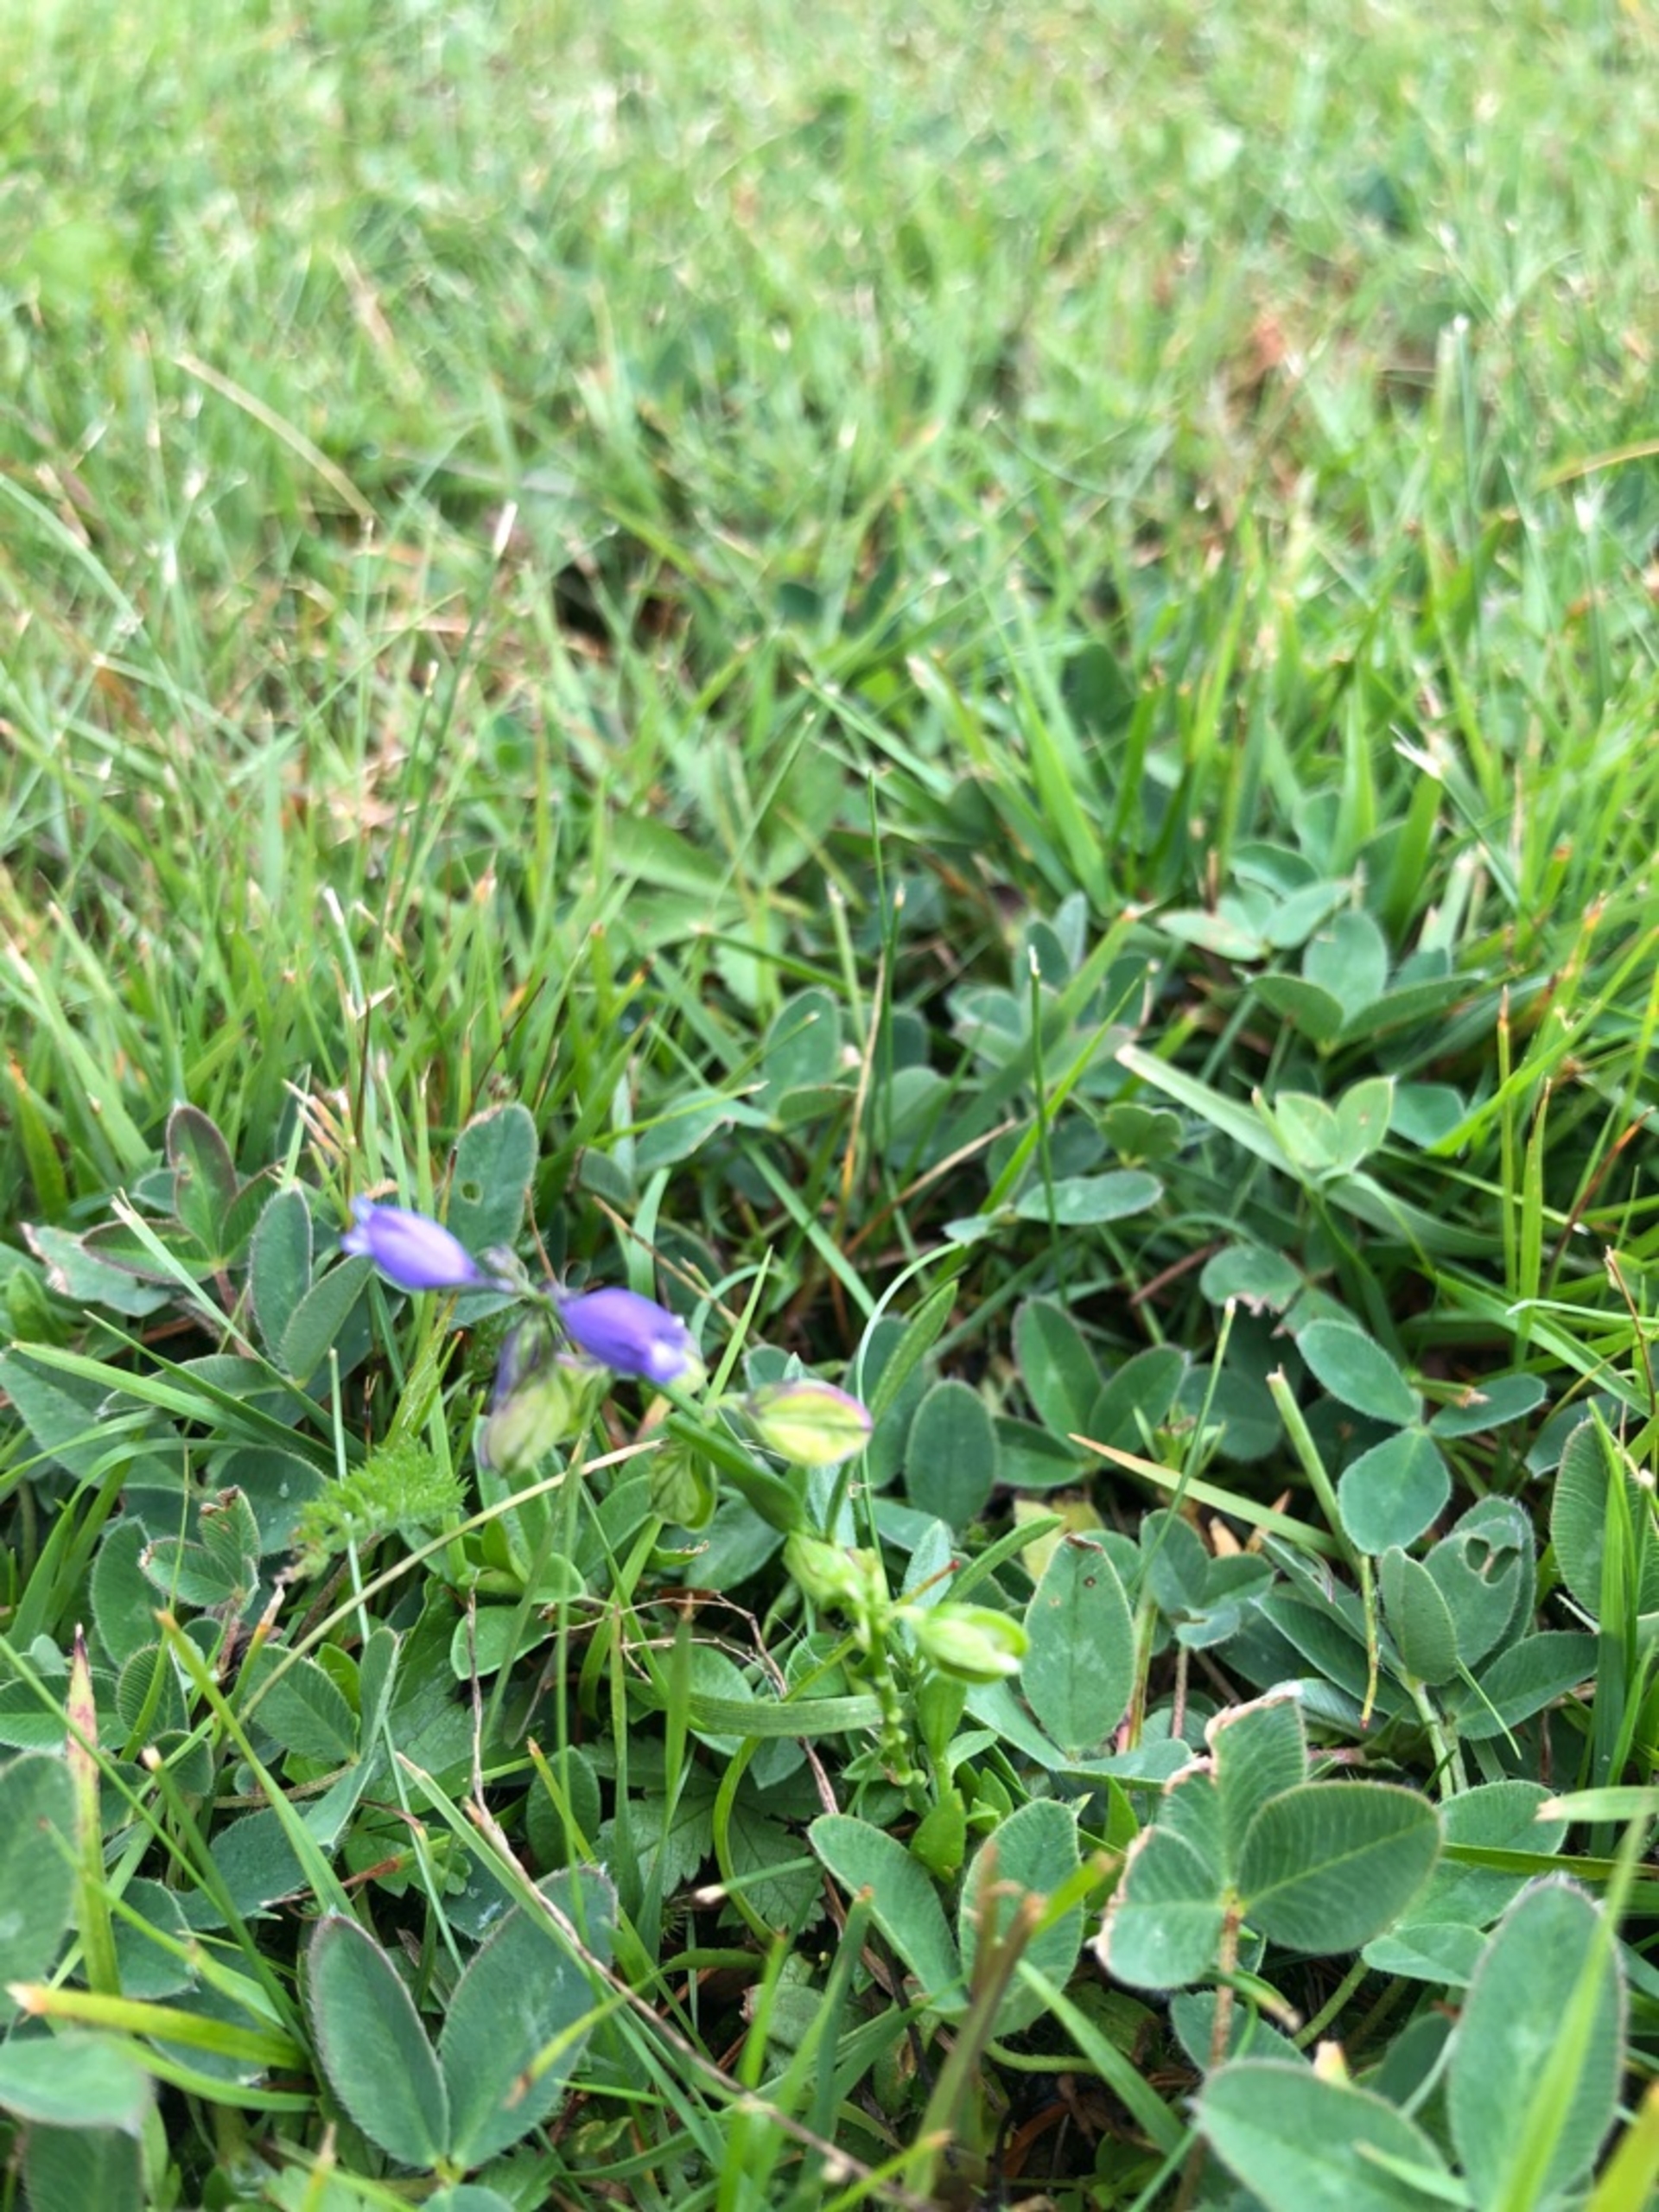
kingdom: Plantae
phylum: Tracheophyta
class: Magnoliopsida
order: Fabales
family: Polygalaceae
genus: Polygala
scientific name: Polygala vulgaris
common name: Almindelig mælkeurt
